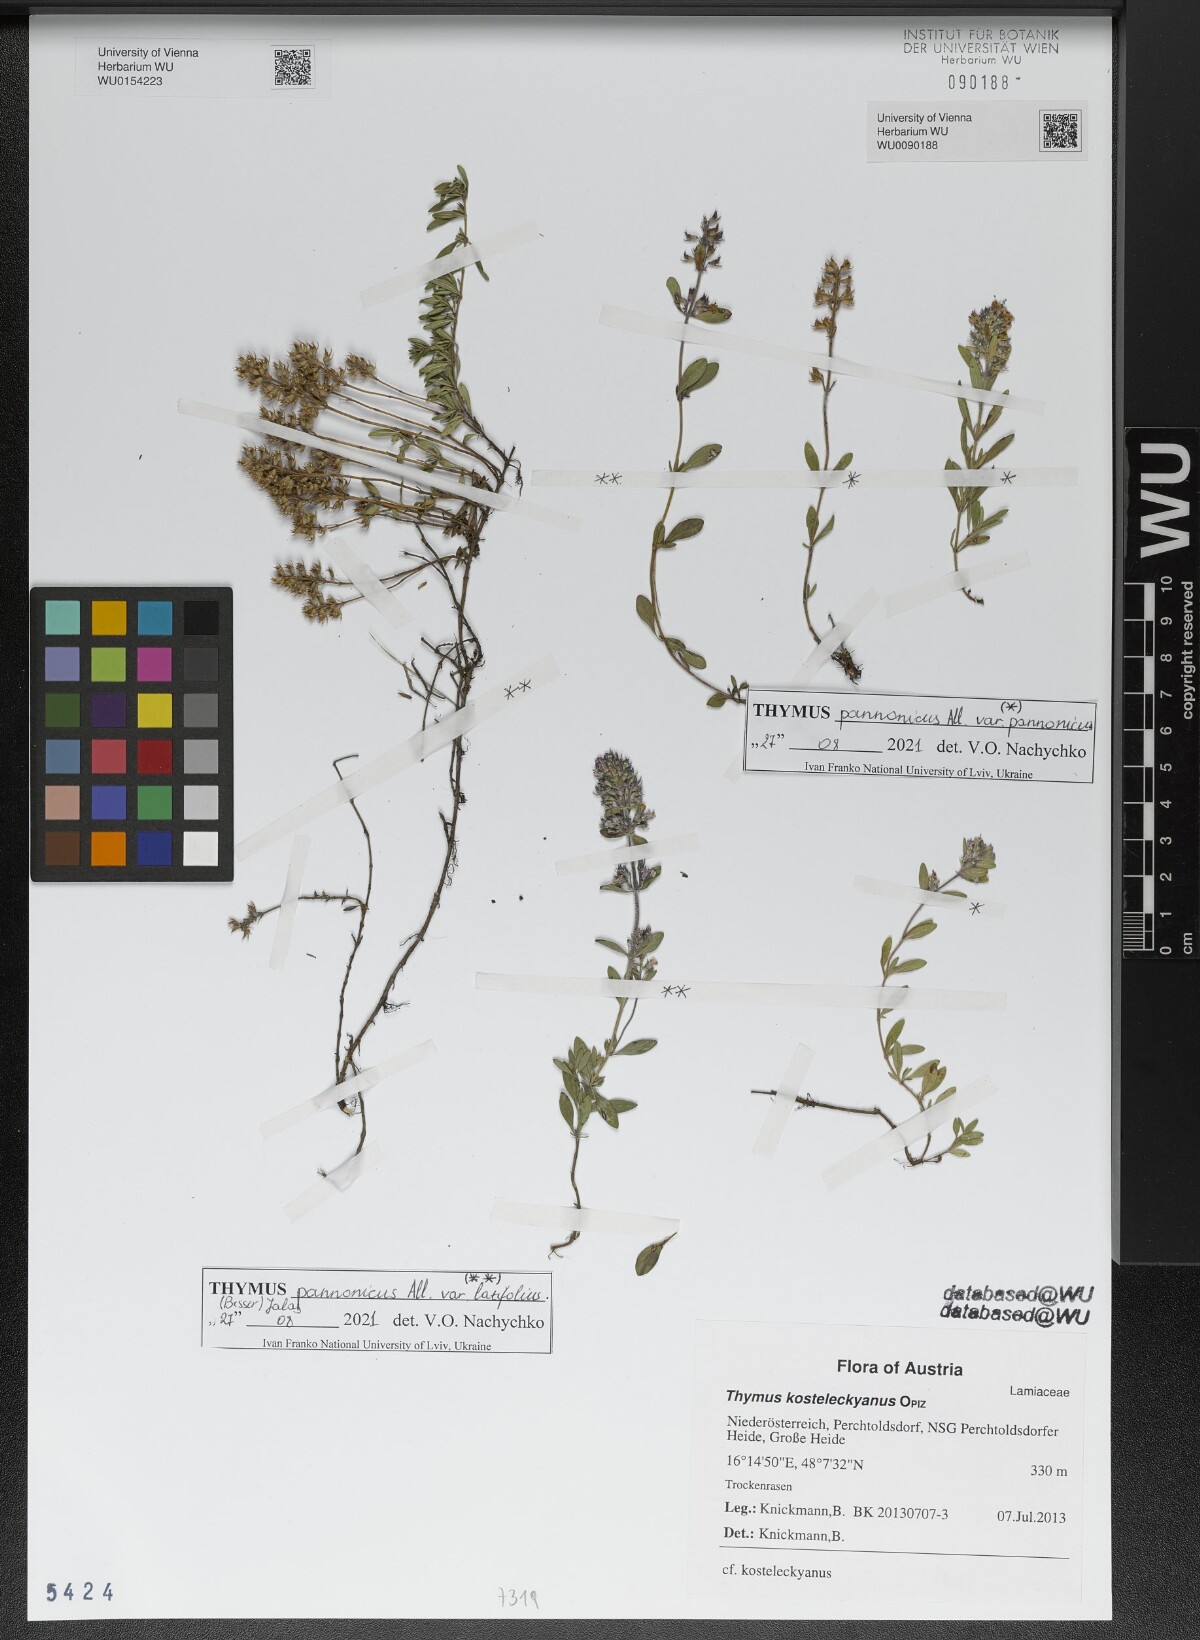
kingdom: Plantae
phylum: Tracheophyta
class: Magnoliopsida
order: Lamiales
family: Lamiaceae
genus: Thymus
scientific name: Thymus pannonicus
